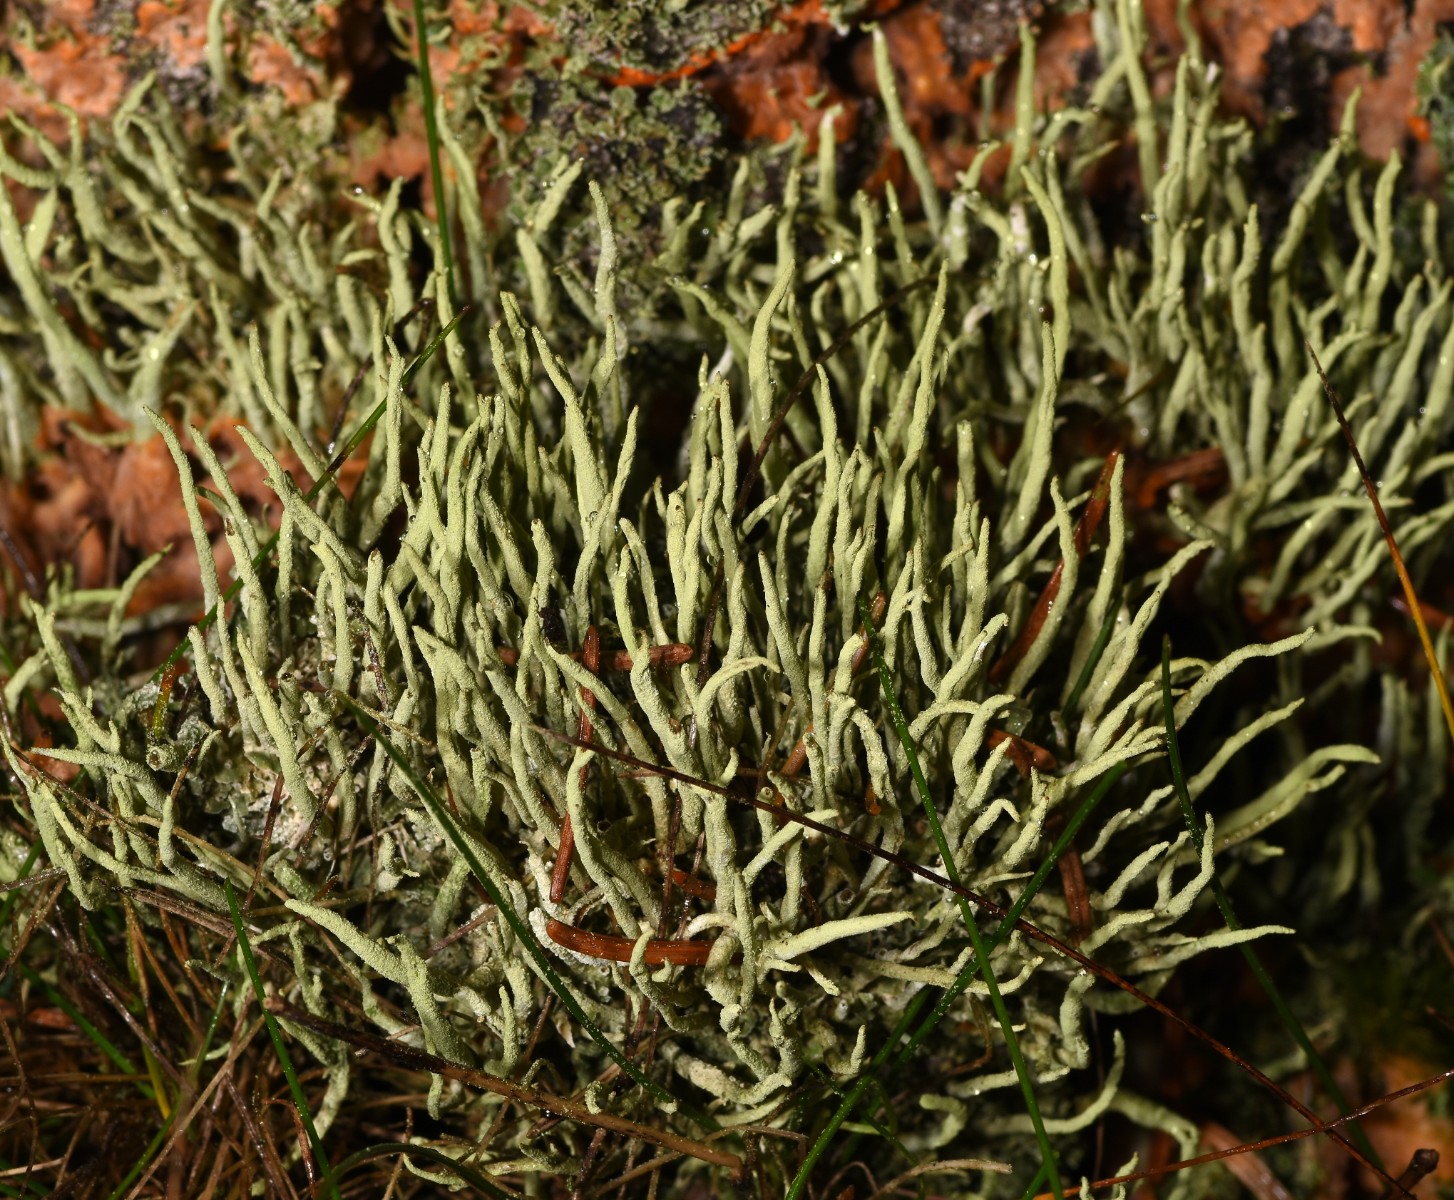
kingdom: Fungi
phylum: Ascomycota
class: Lecanoromycetes
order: Lecanorales
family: Cladoniaceae
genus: Cladonia
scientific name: Cladonia glauca
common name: grågrøn bægerlav
